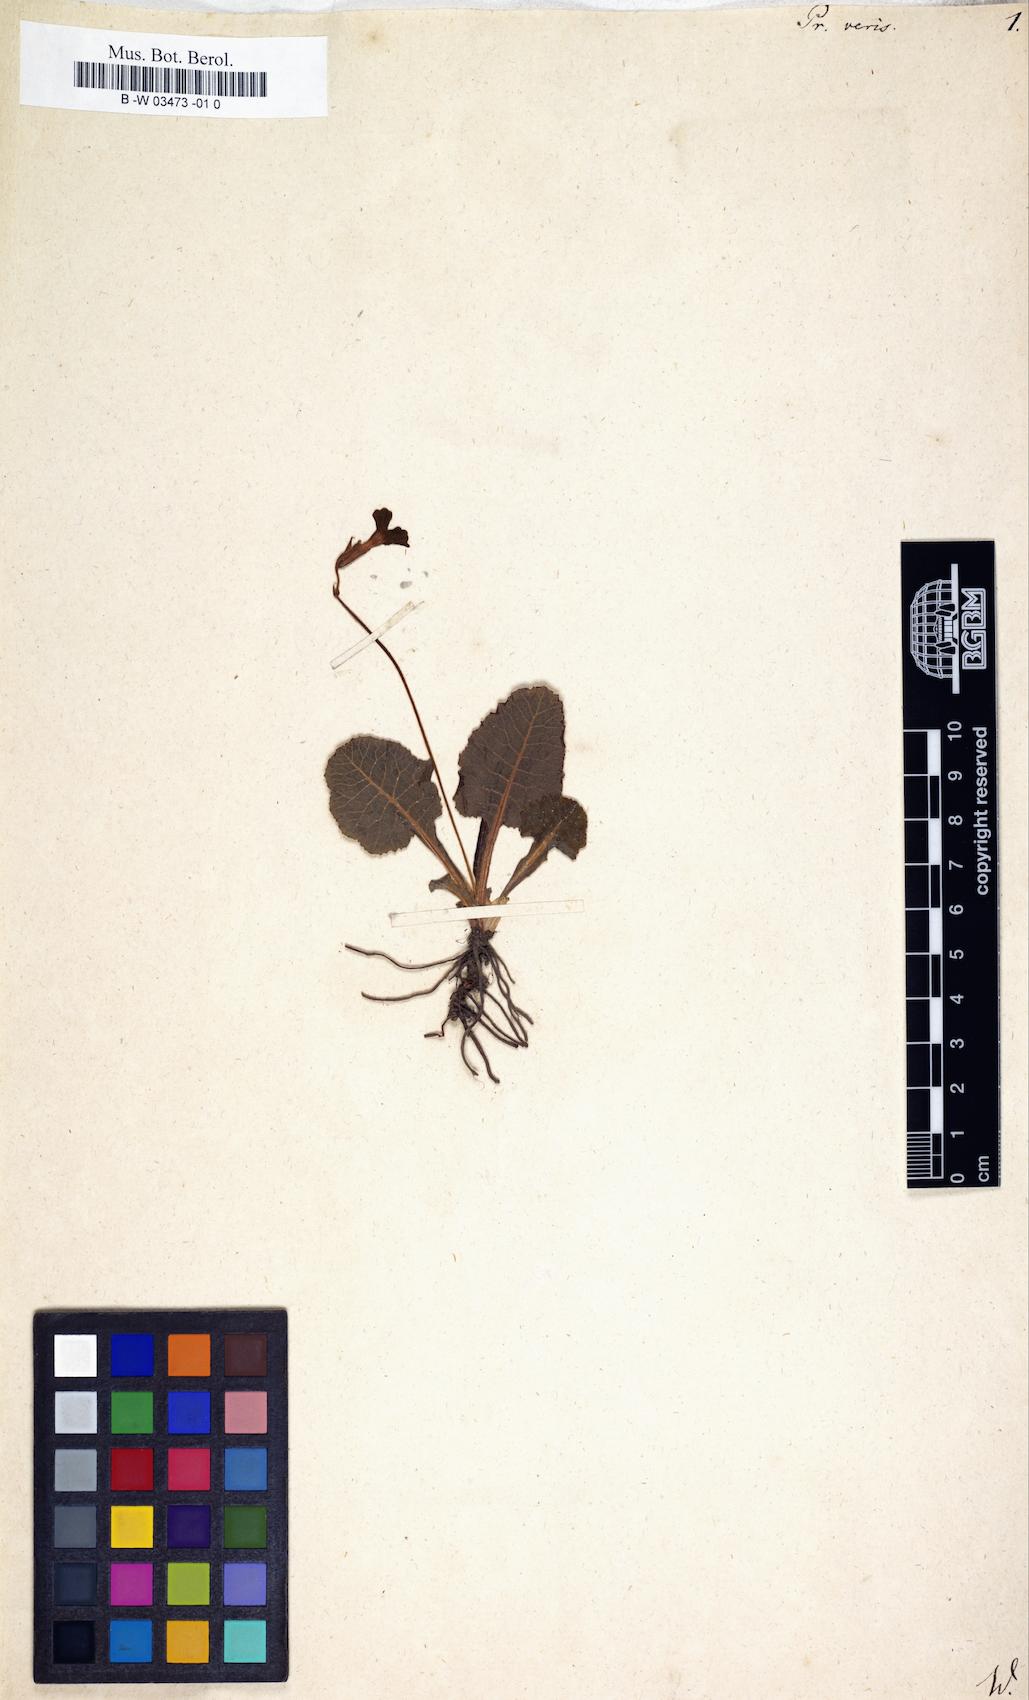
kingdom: Plantae
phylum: Tracheophyta
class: Magnoliopsida
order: Ericales
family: Primulaceae
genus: Primula
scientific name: Primula veris
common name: Cowslip
